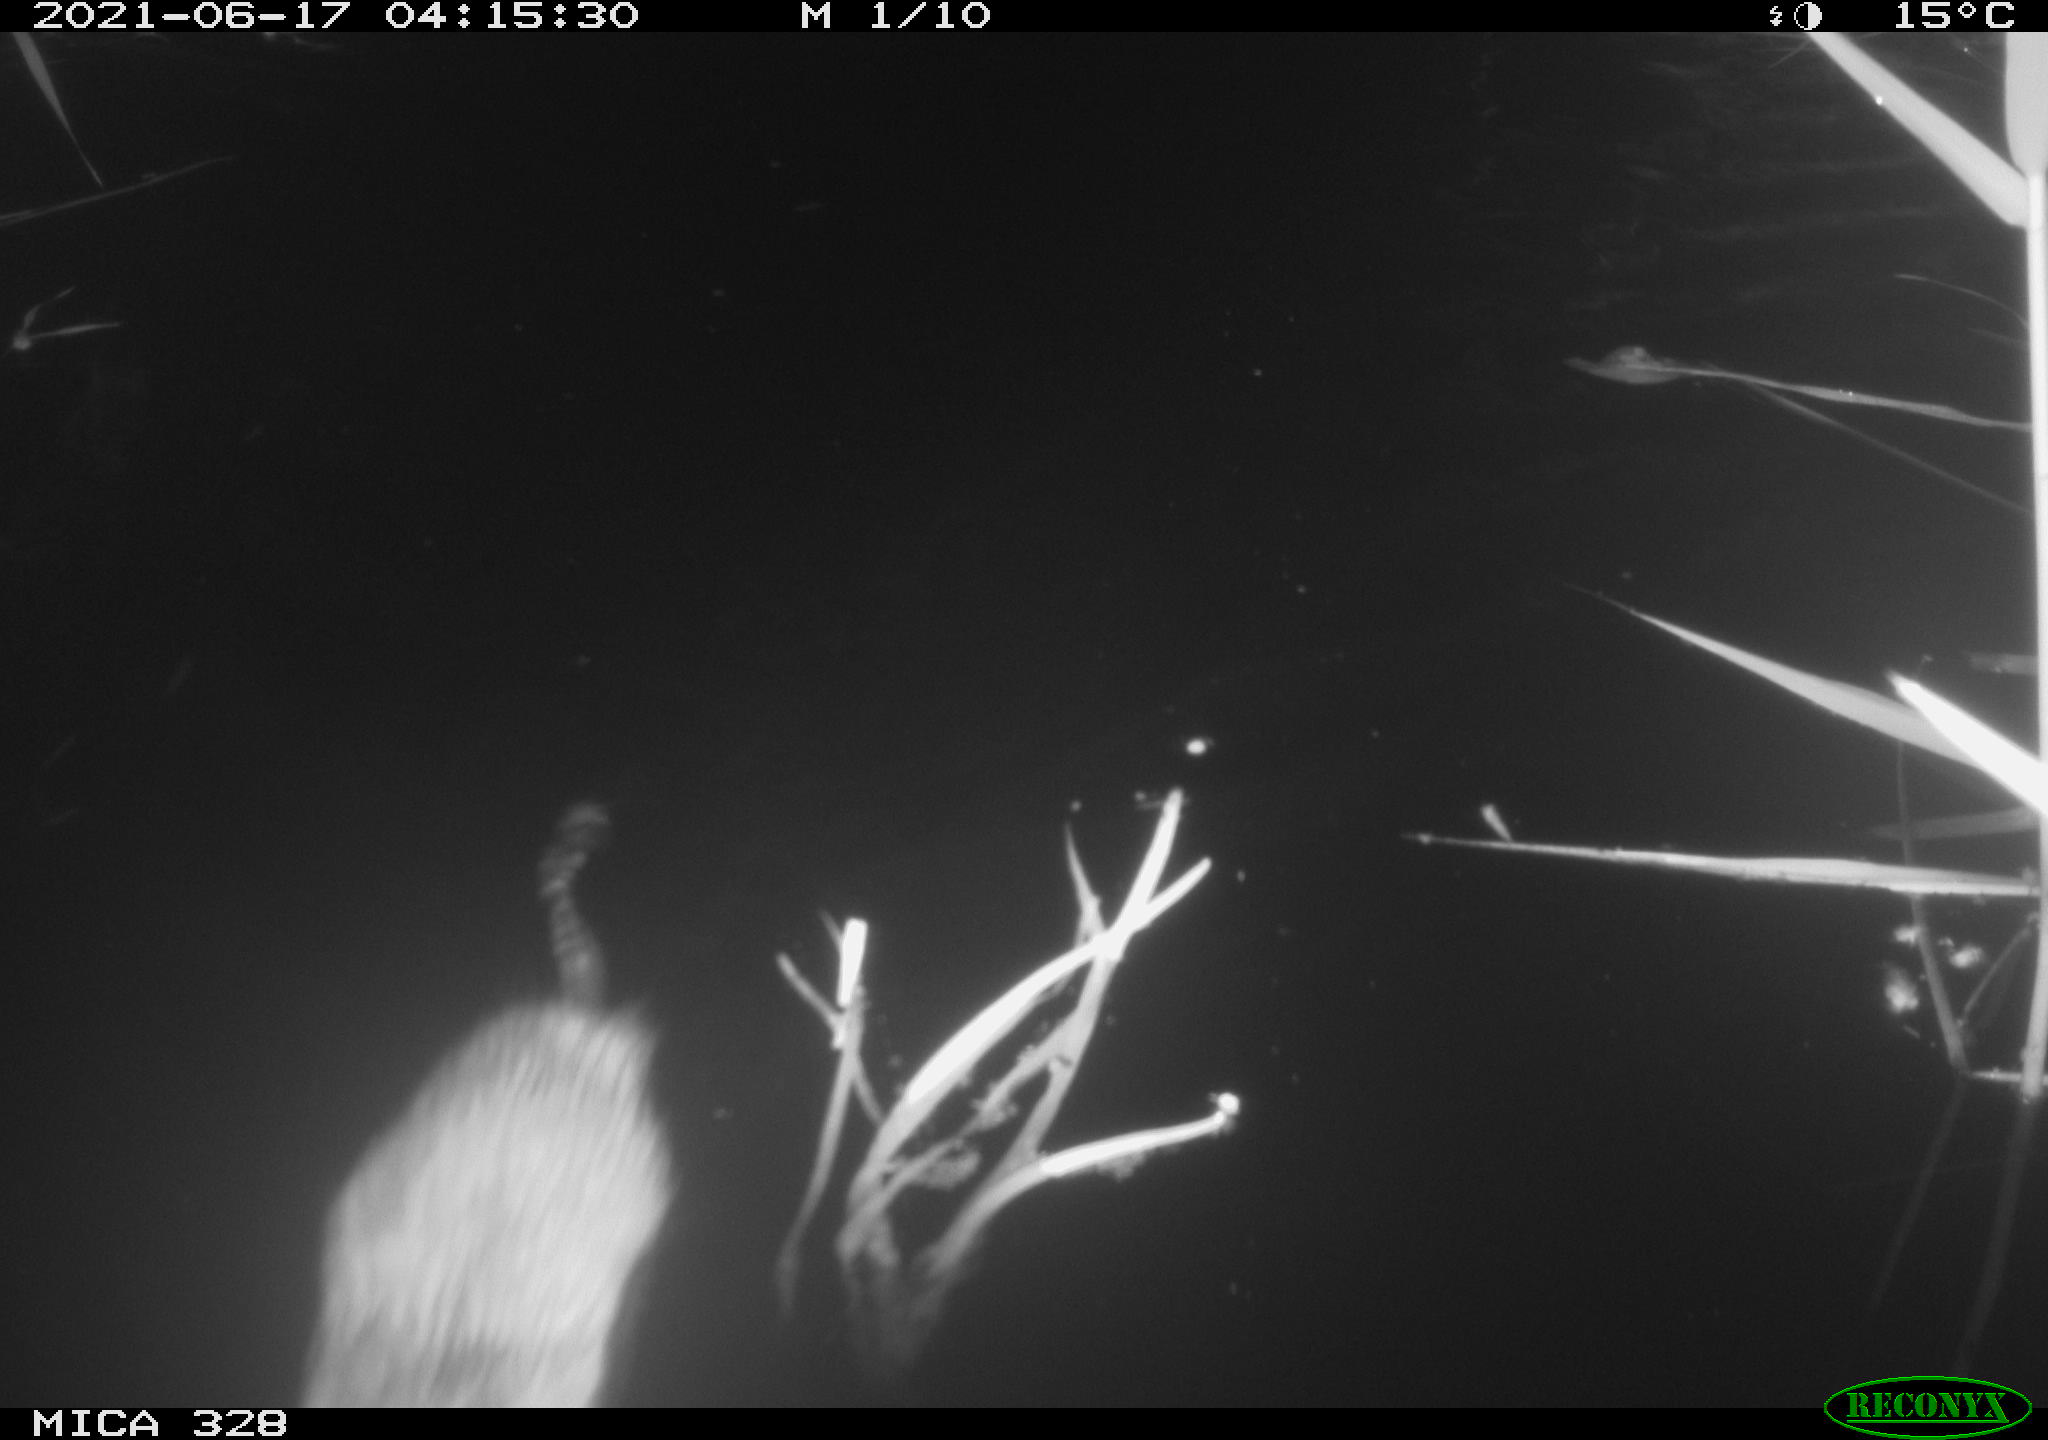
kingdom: Animalia
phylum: Chordata
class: Mammalia
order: Rodentia
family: Cricetidae
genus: Ondatra
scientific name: Ondatra zibethicus
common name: Muskrat
